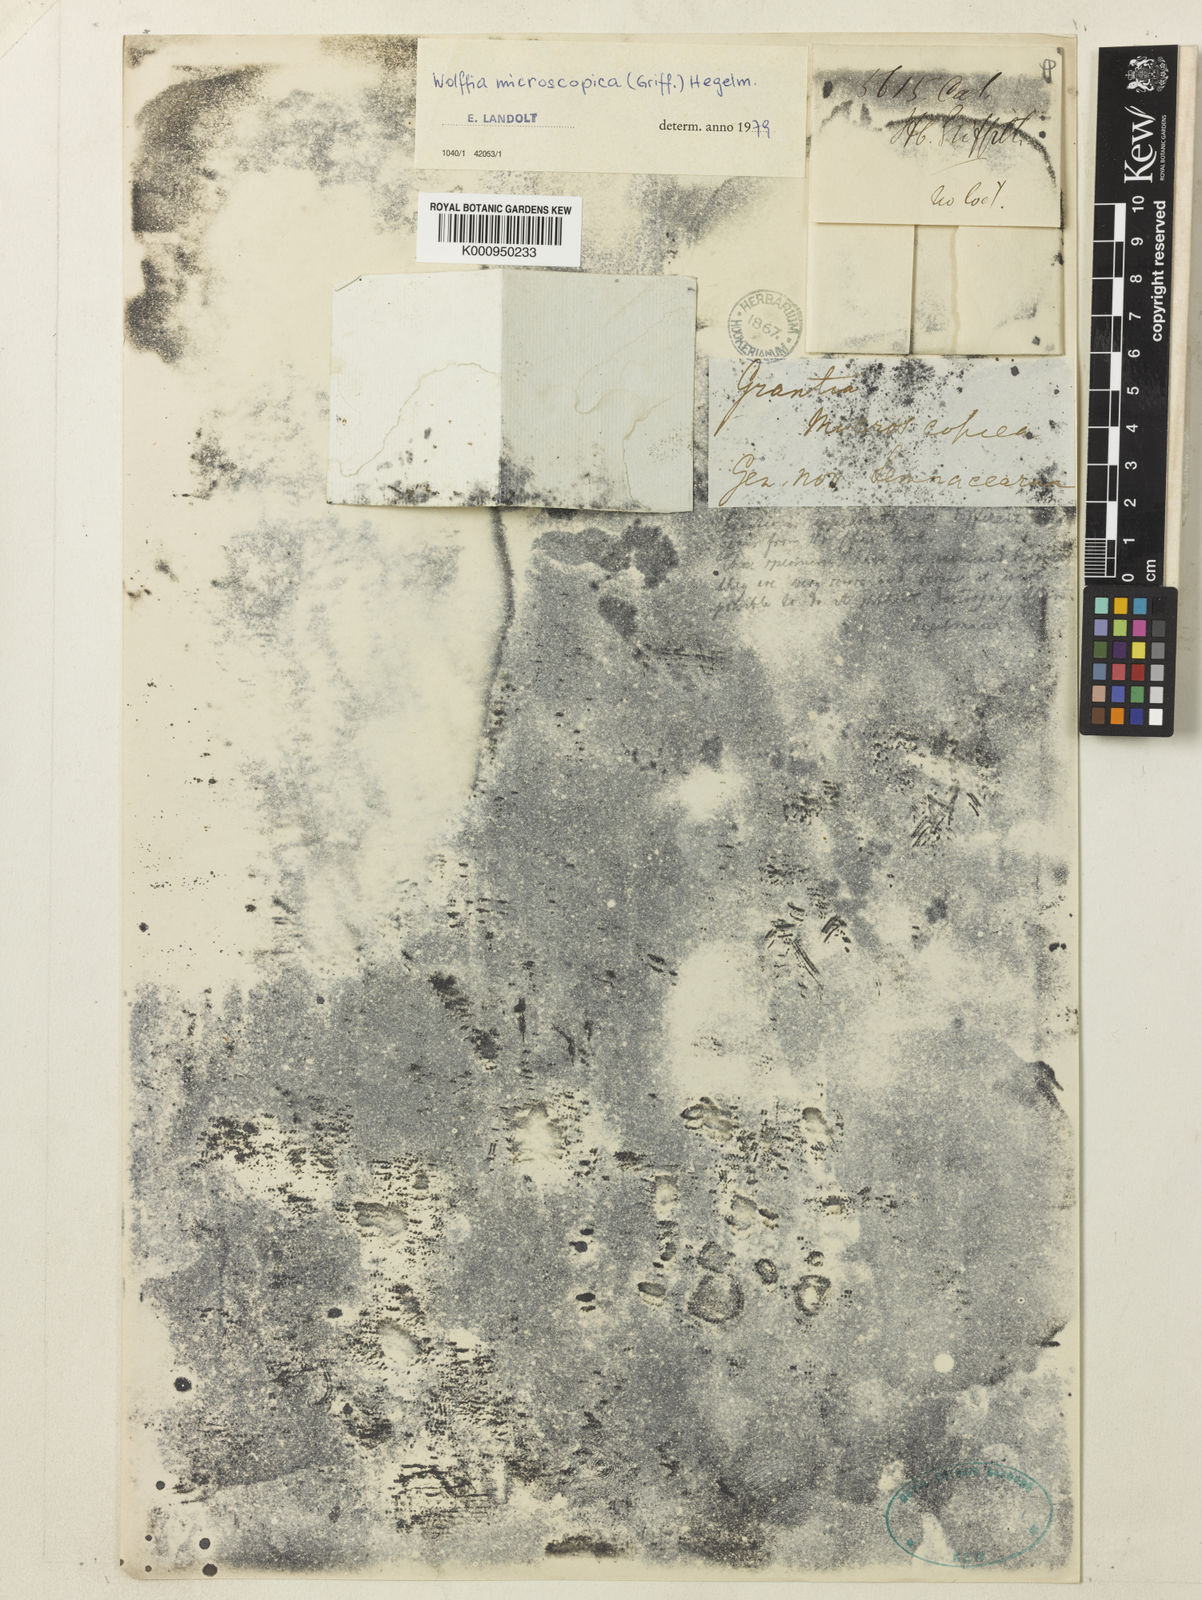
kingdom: Plantae
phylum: Tracheophyta
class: Liliopsida
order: Alismatales
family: Araceae
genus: Wolffia
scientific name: Wolffia microscopica
